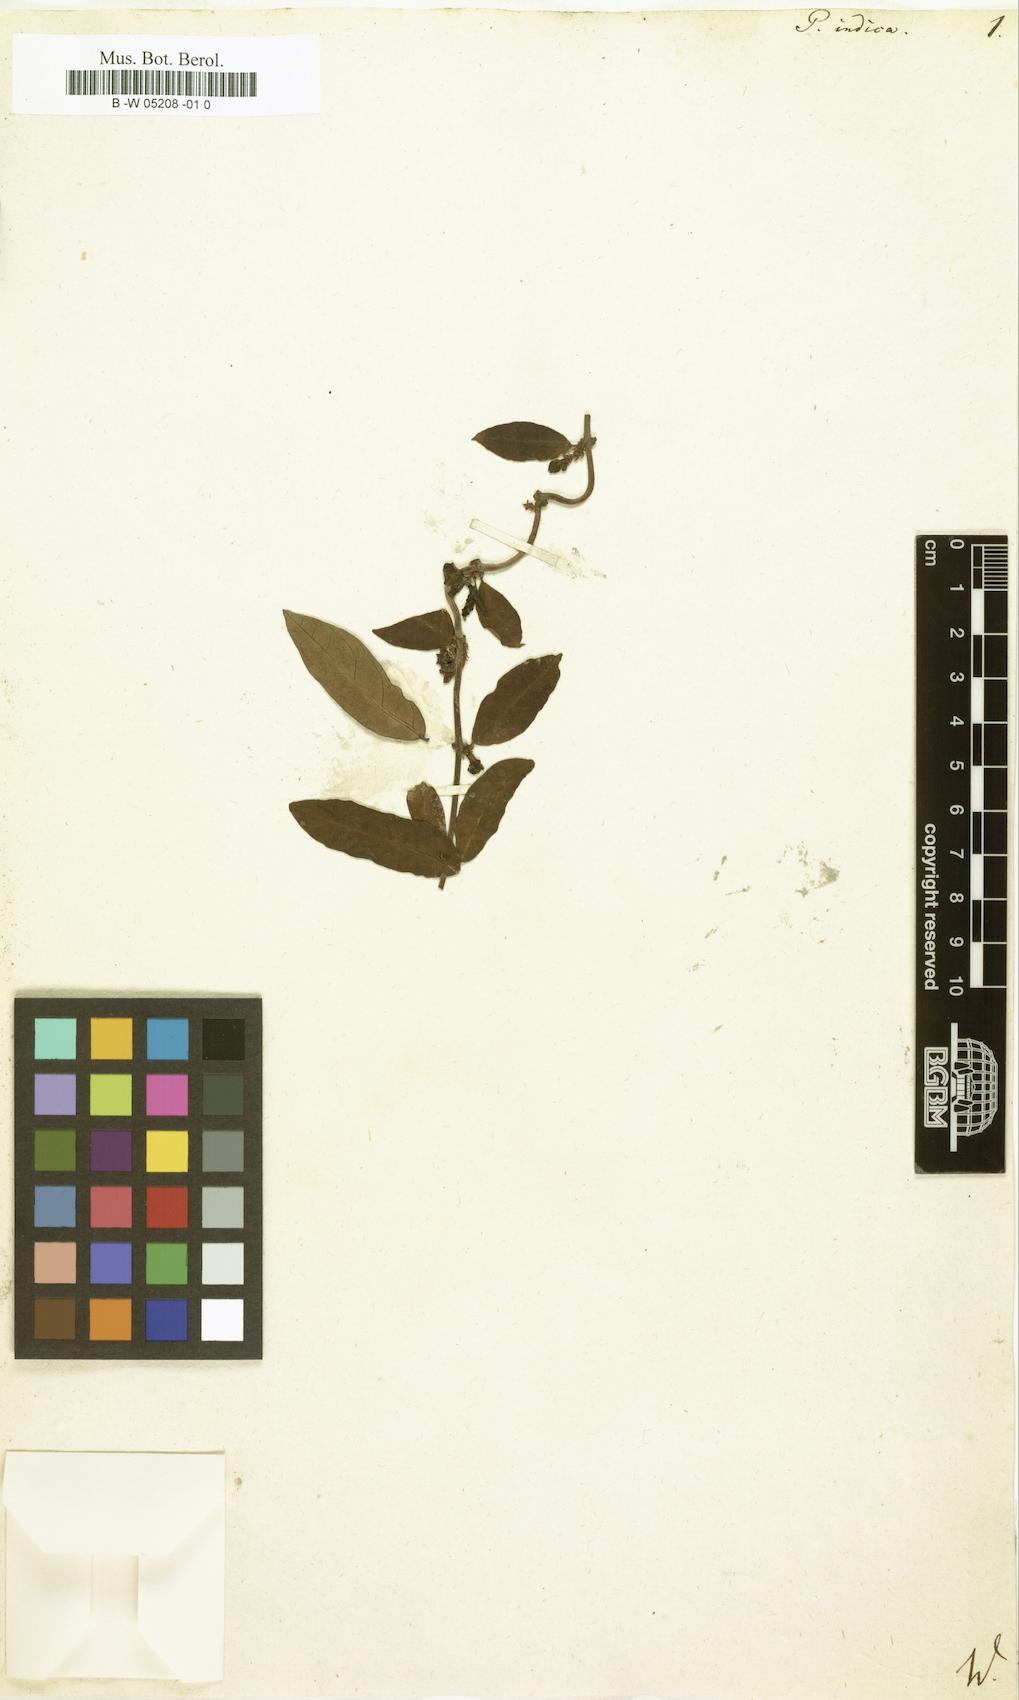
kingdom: Plantae
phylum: Tracheophyta
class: Magnoliopsida
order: Gentianales
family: Apocynaceae
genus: Hemidesmus
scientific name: Hemidesmus indicus
